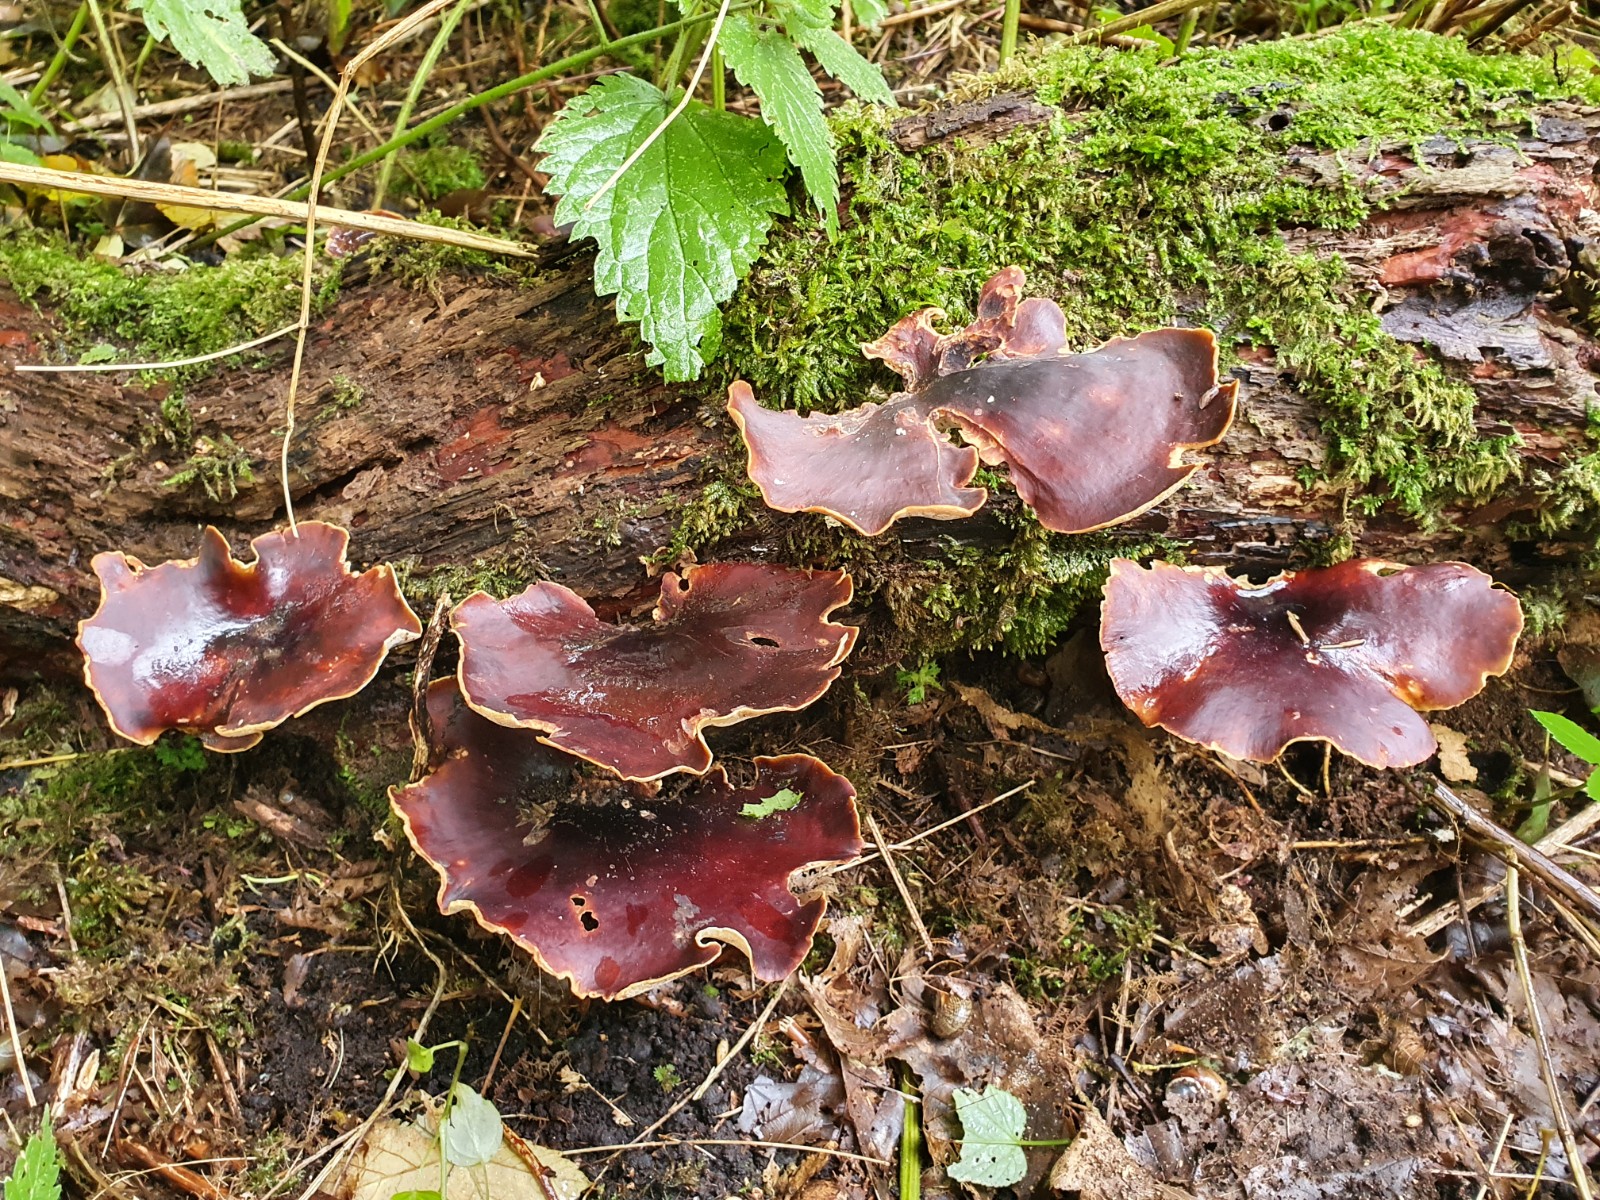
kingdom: Fungi
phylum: Basidiomycota
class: Agaricomycetes
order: Polyporales
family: Polyporaceae
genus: Picipes
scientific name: Picipes badius
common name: kastaniebrun stilkporesvamp
